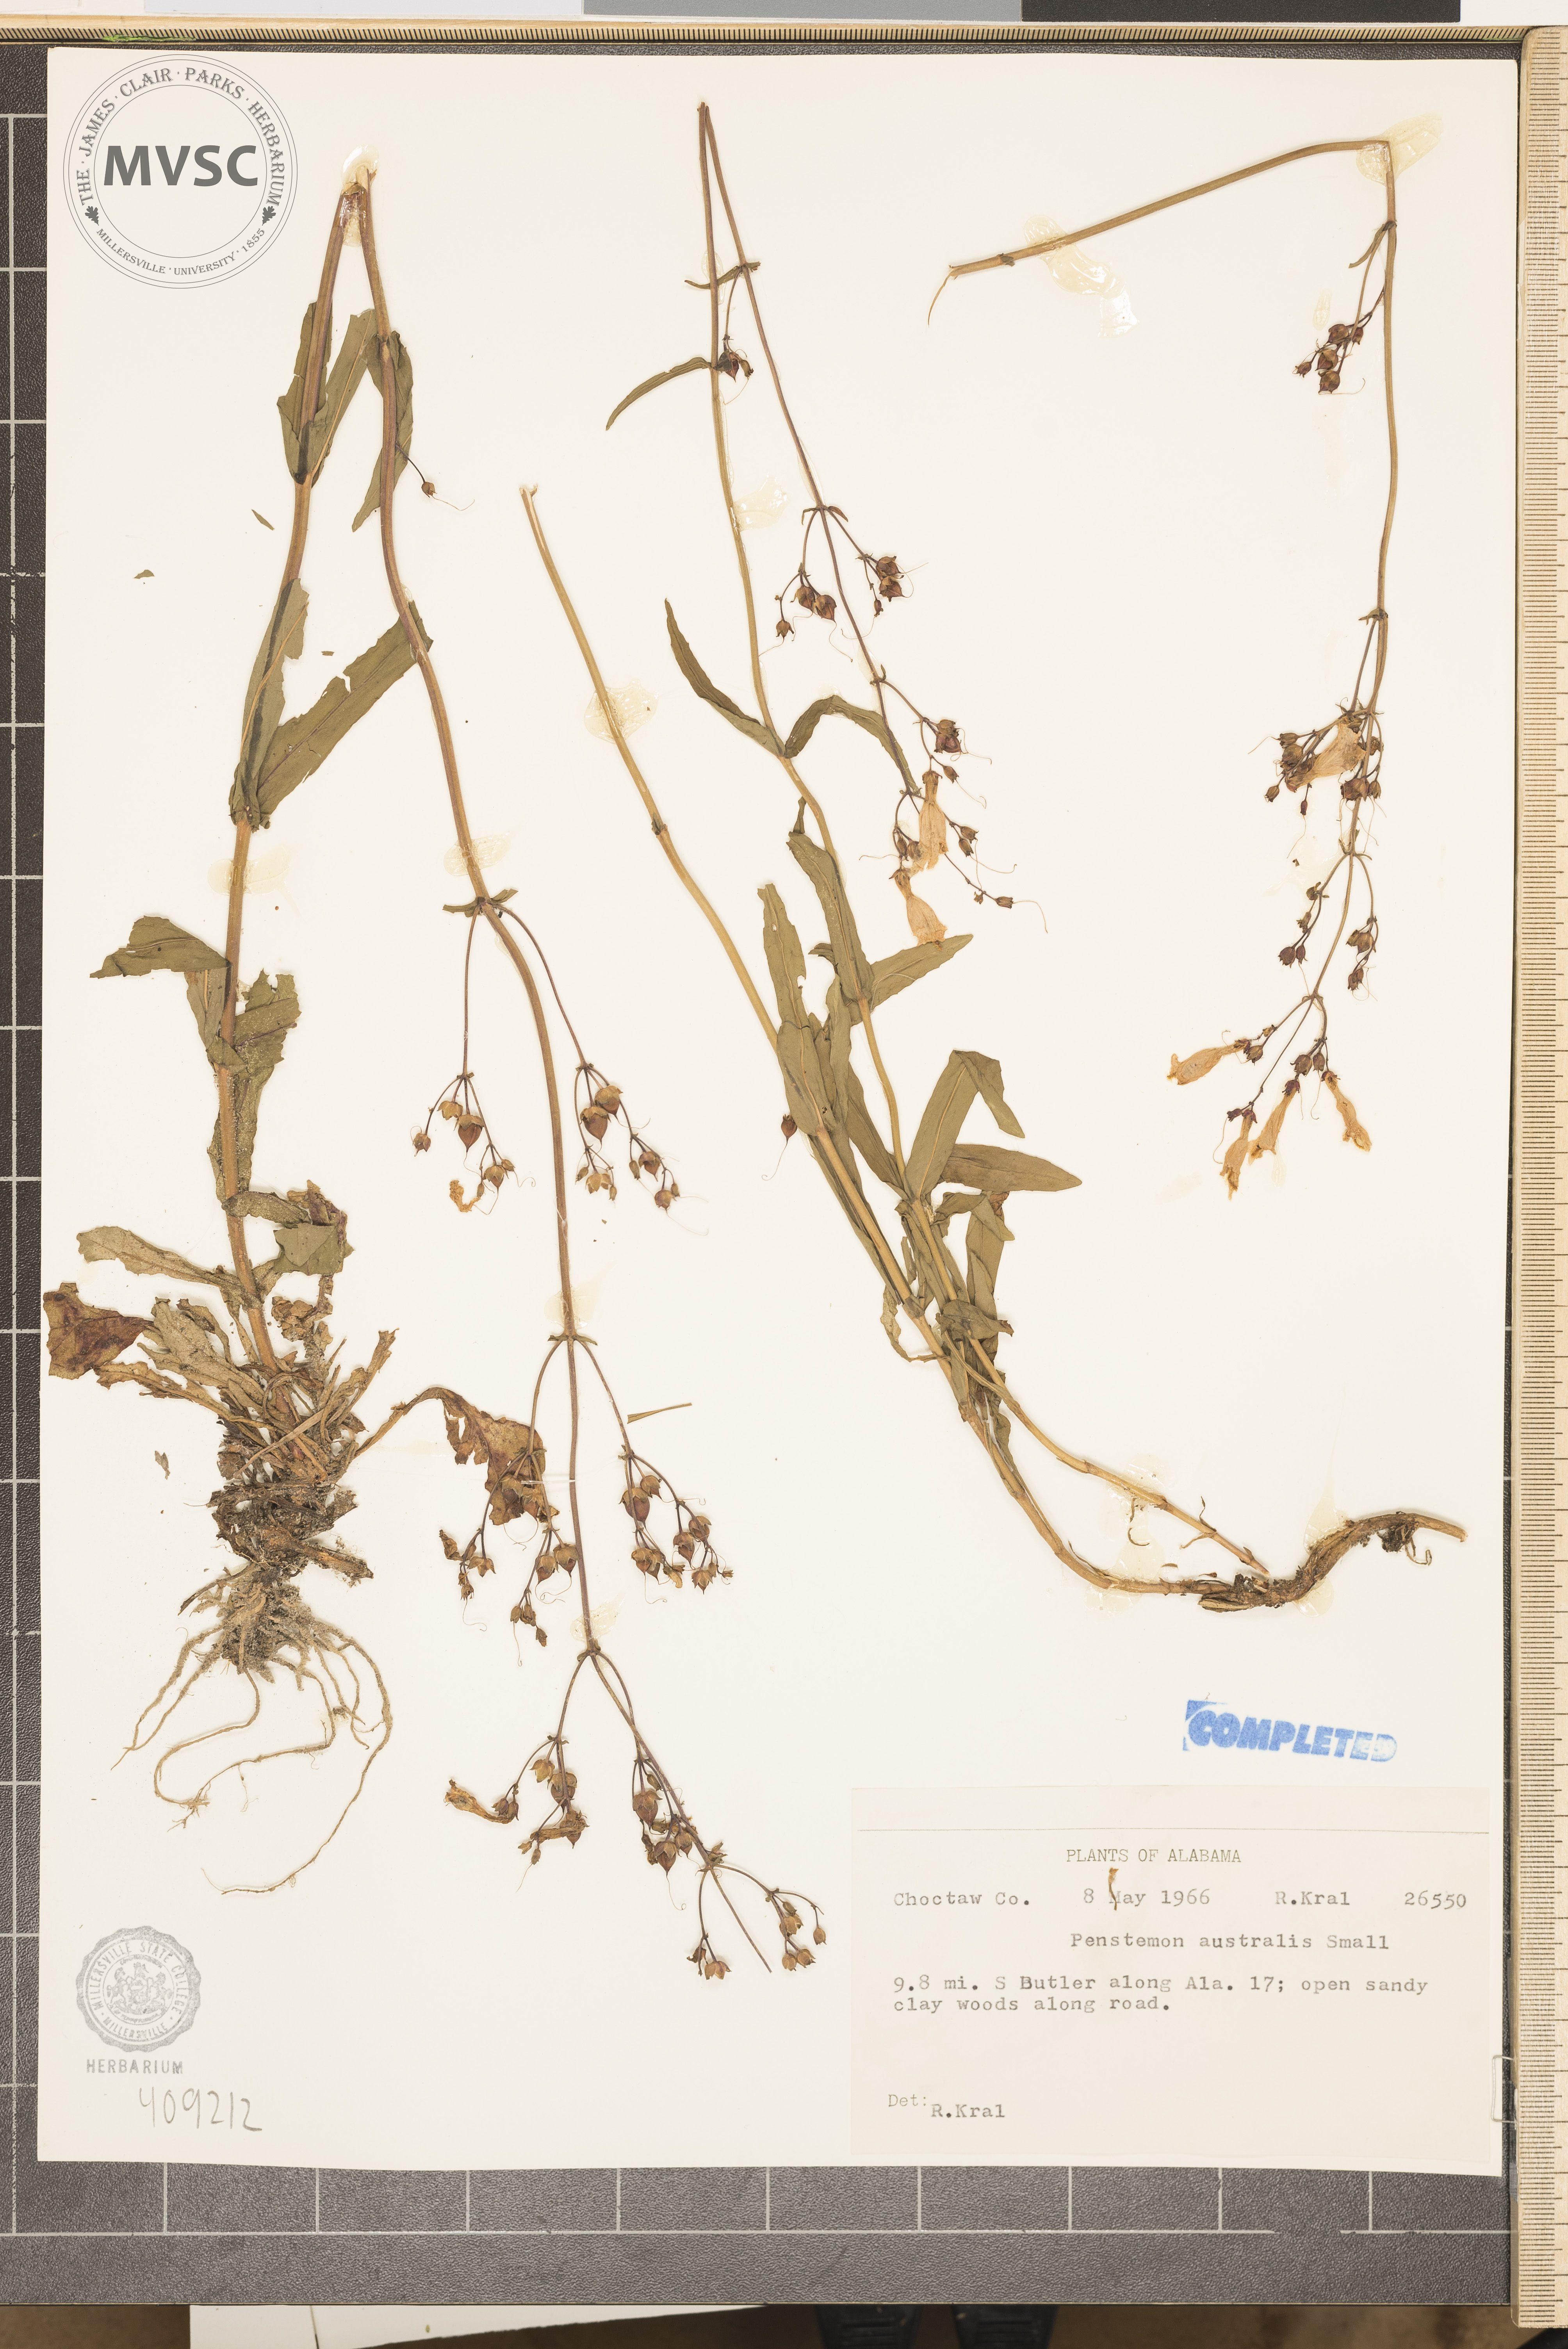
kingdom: Plantae
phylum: Tracheophyta
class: Magnoliopsida
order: Lamiales
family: Plantaginaceae
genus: Penstemon
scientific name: Penstemon australis
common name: Southeastern beardtongue
